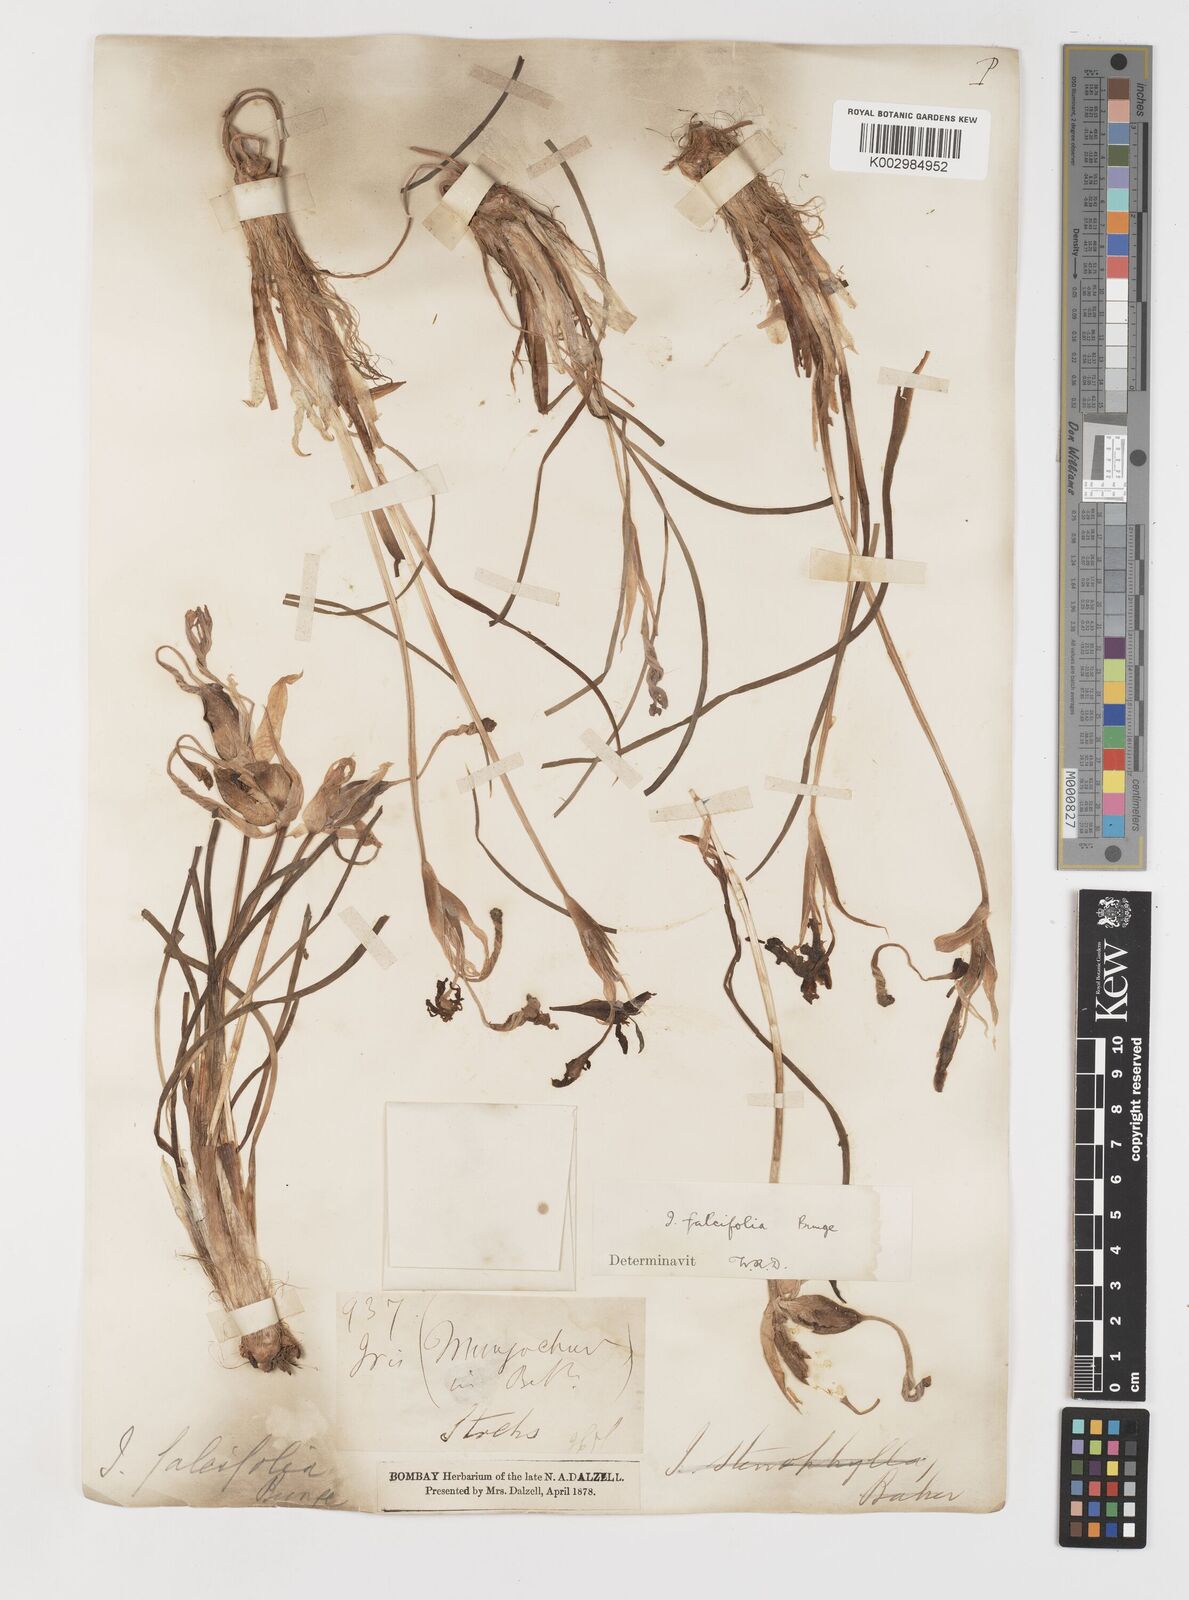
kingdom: Plantae
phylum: Tracheophyta
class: Liliopsida
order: Asparagales
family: Iridaceae
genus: Iris
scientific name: Iris longiscapa
